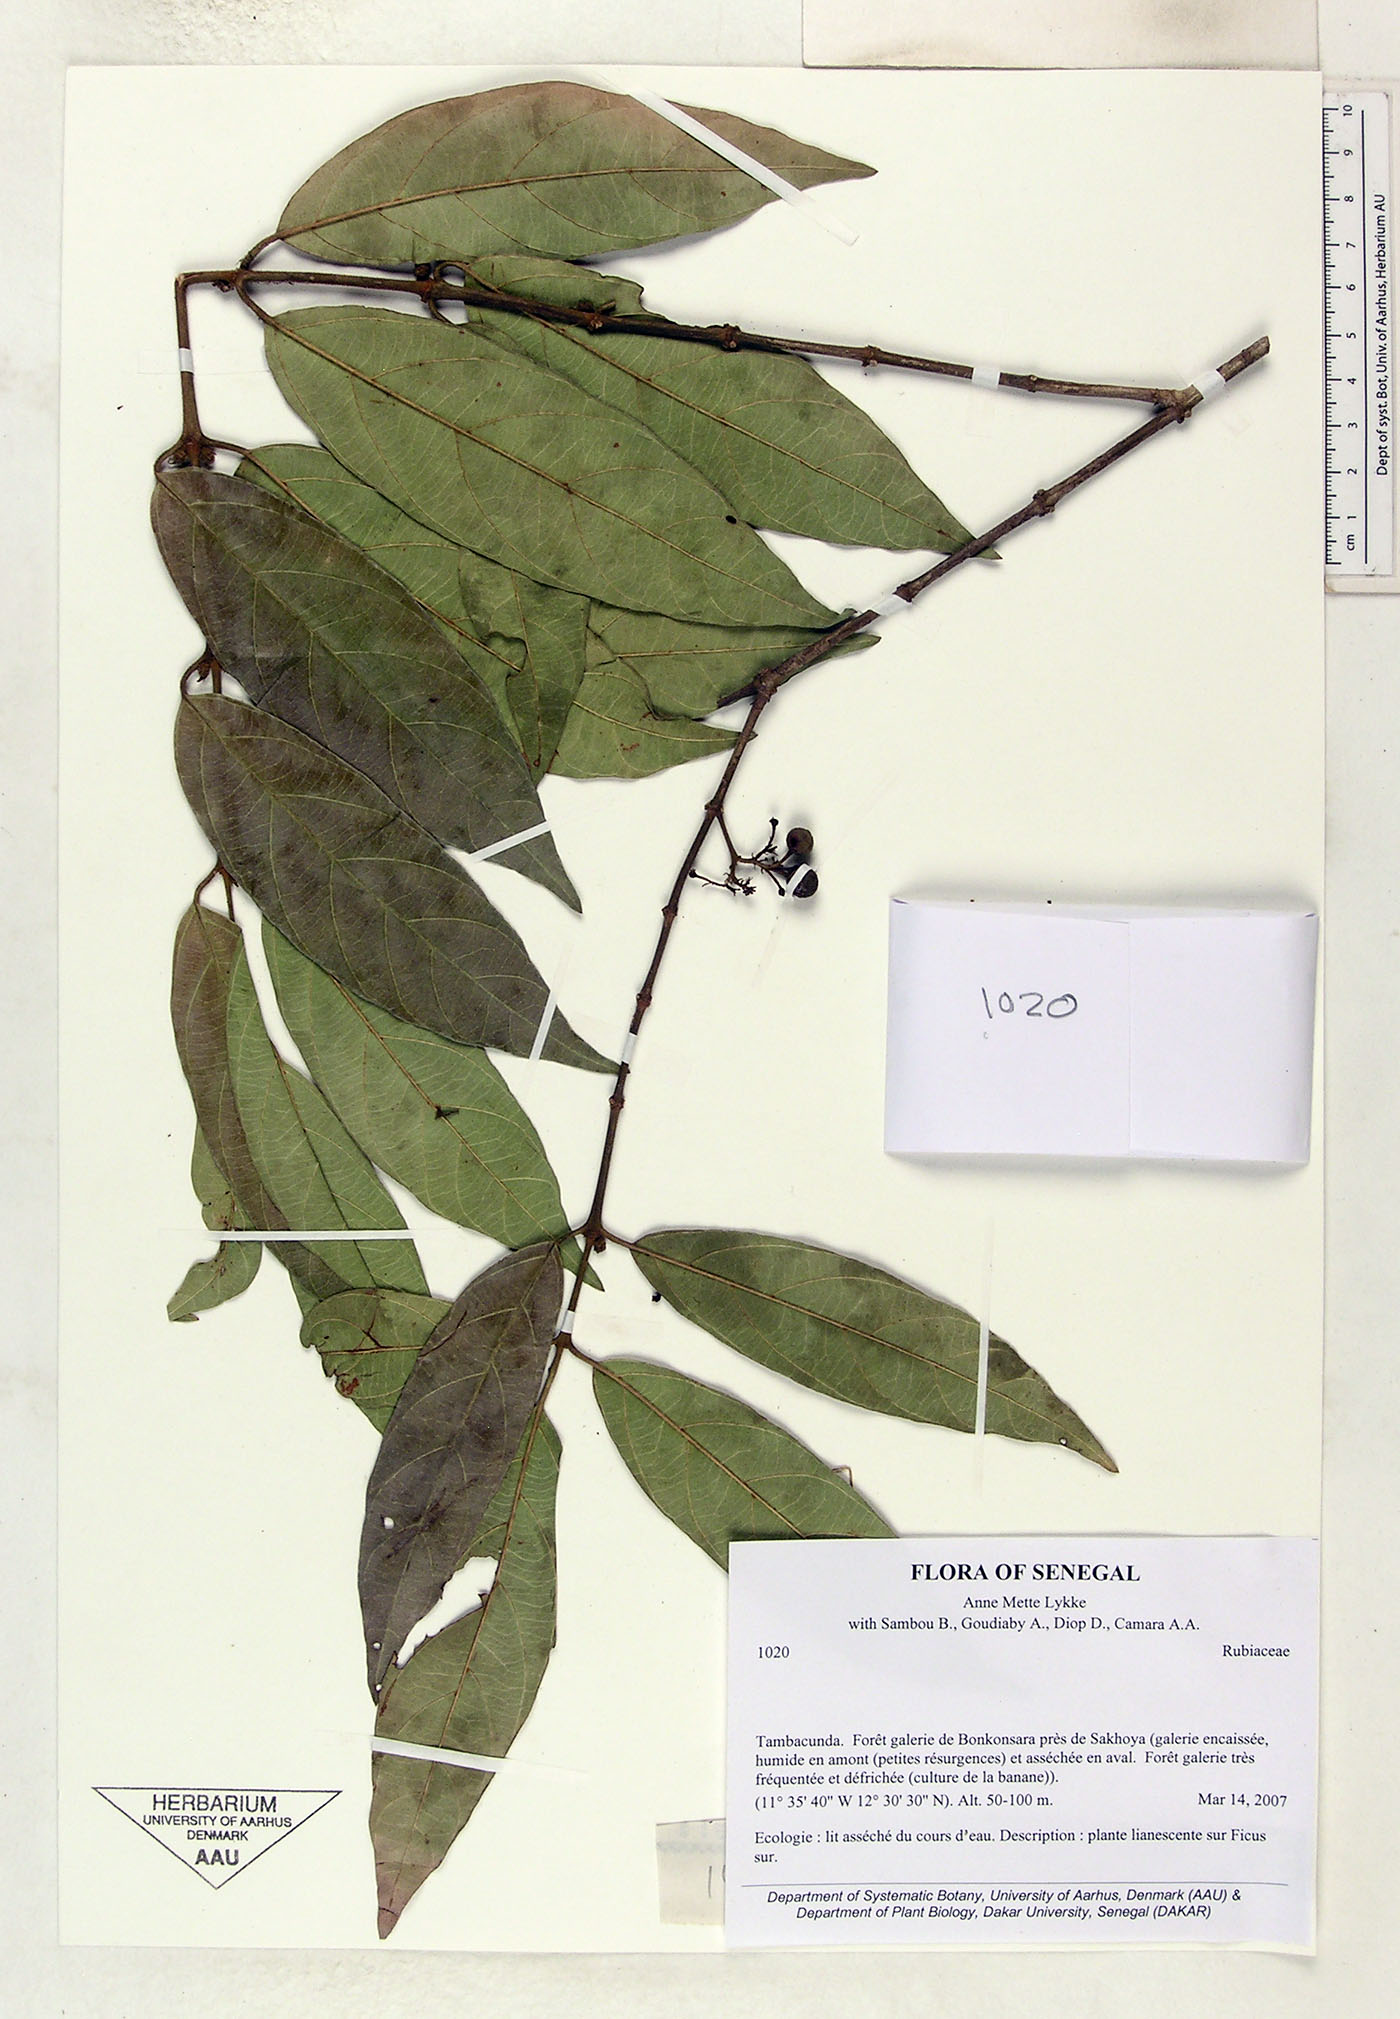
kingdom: Plantae
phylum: Tracheophyta
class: Magnoliopsida
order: Gentianales
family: Rubiaceae
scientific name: Rubiaceae
